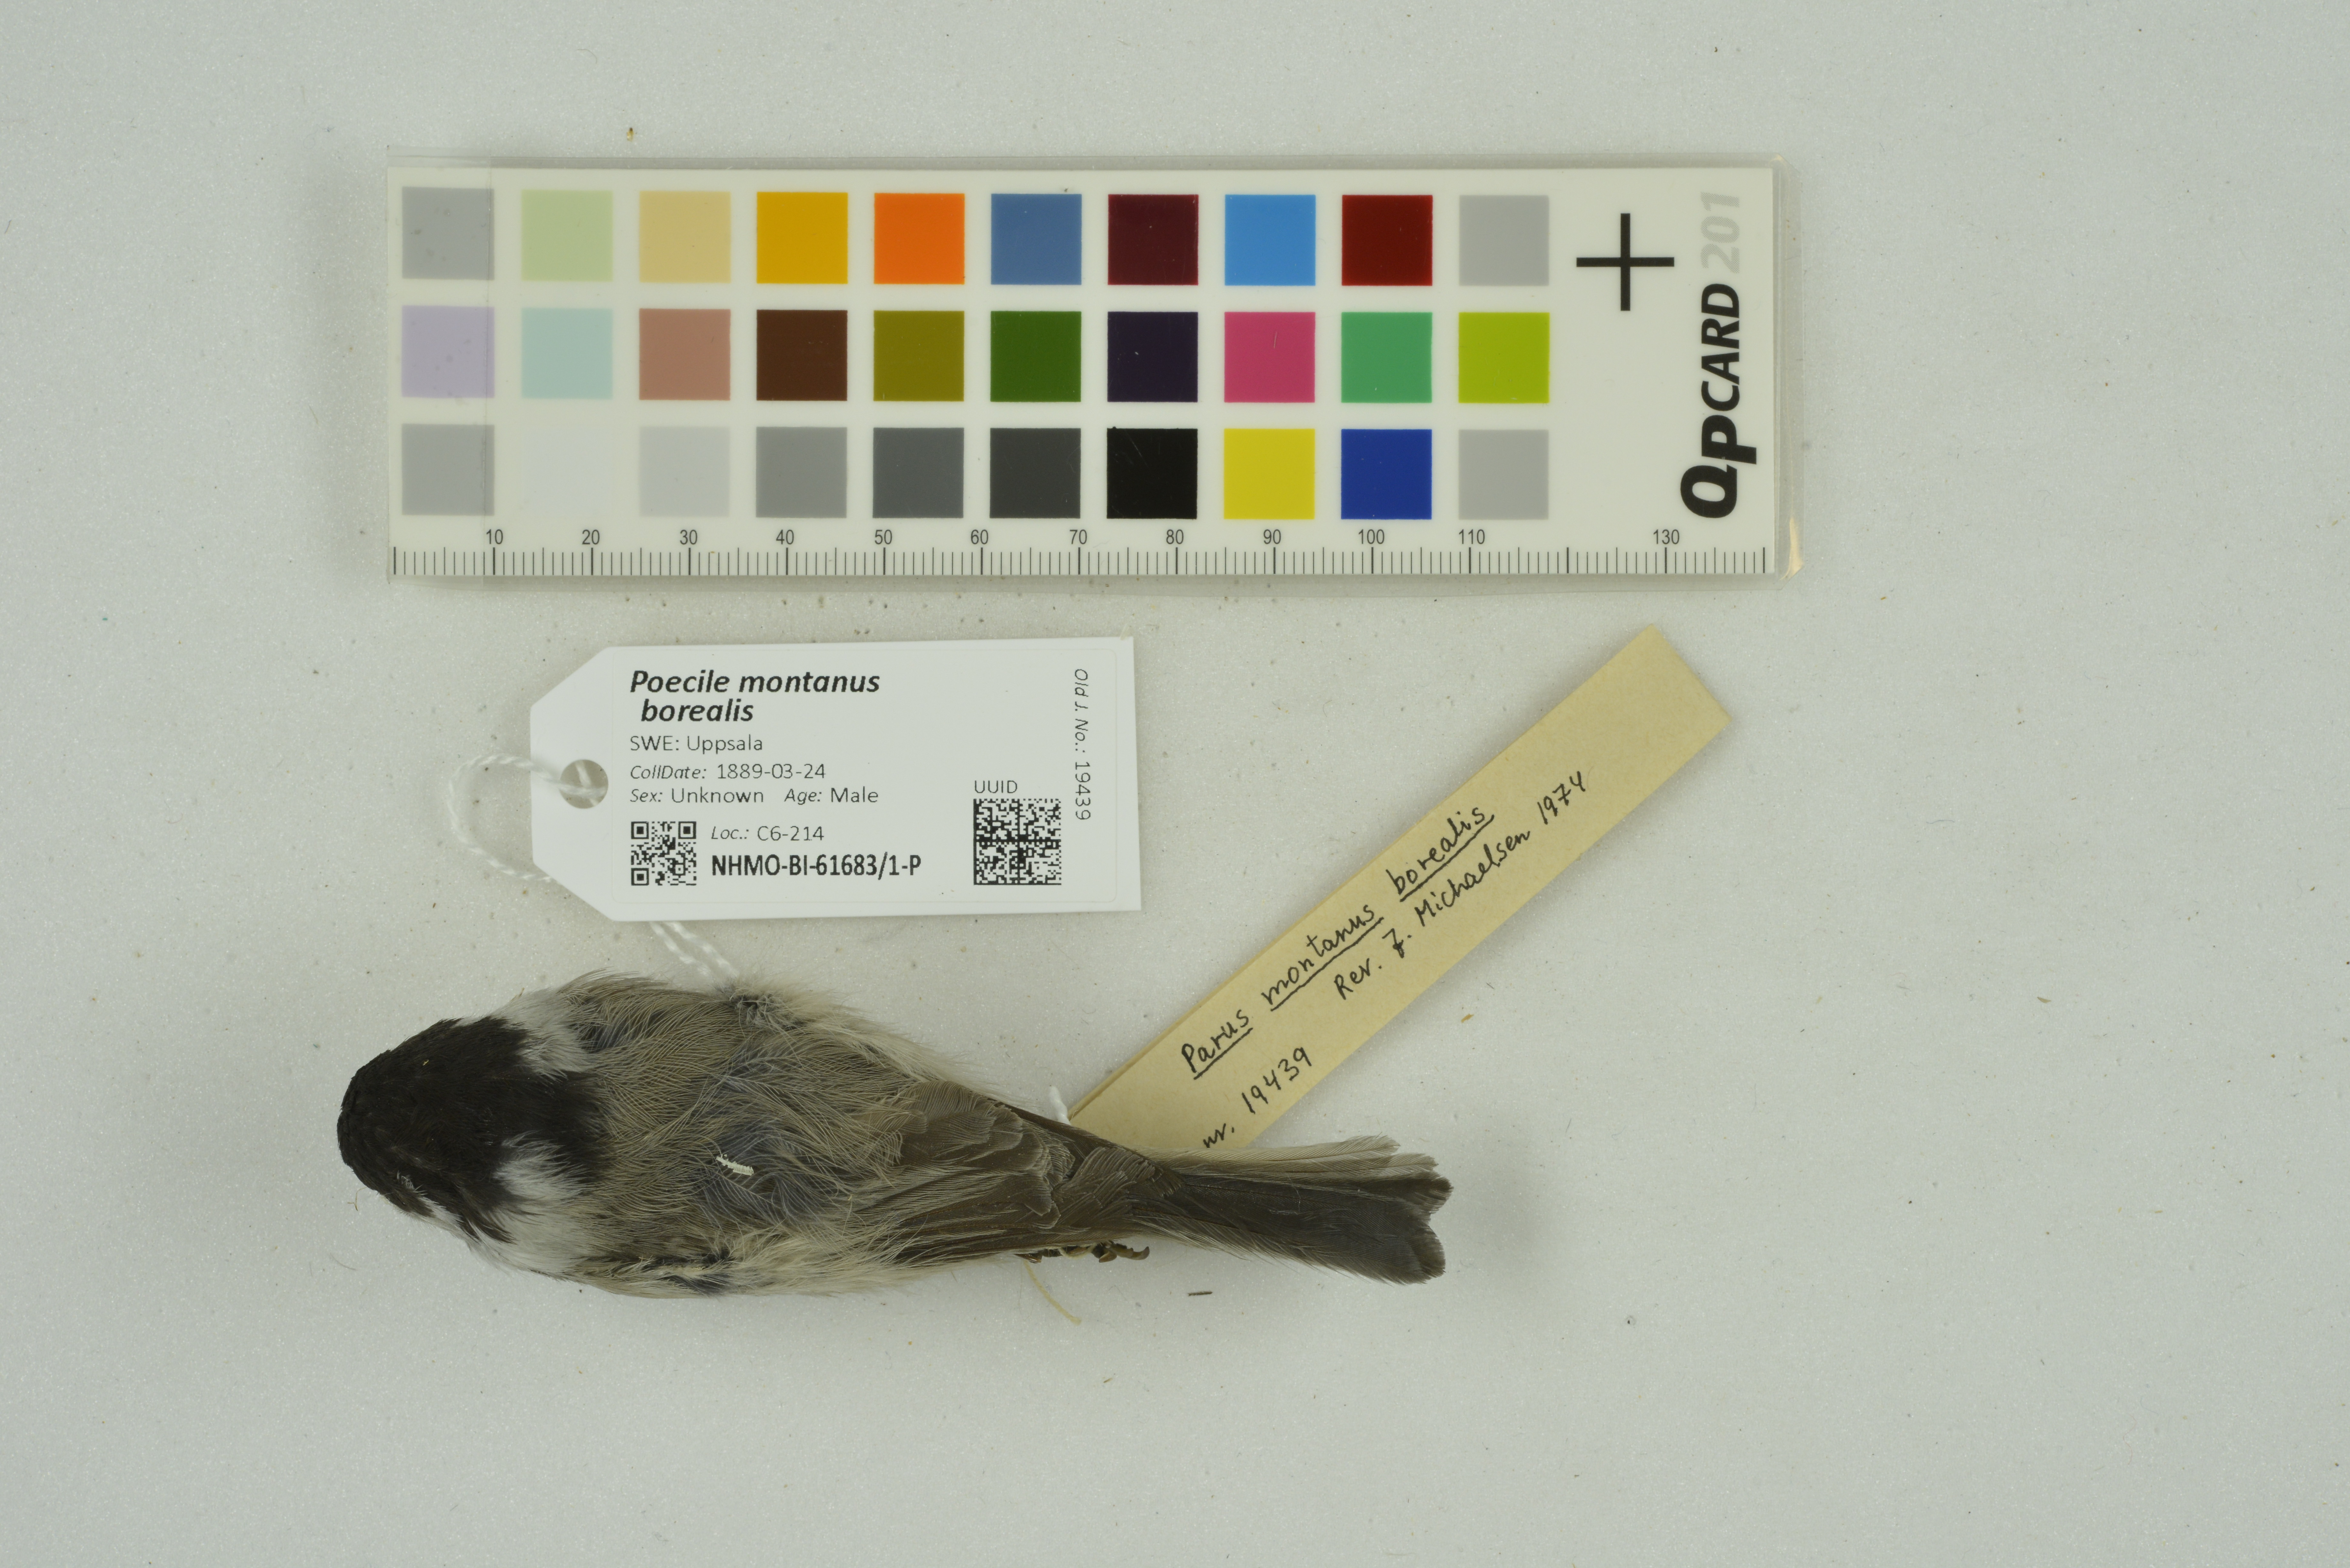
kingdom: Animalia
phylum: Chordata
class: Aves
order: Passeriformes
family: Paridae
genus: Poecile
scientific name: Poecile montanus
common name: Willow tit
